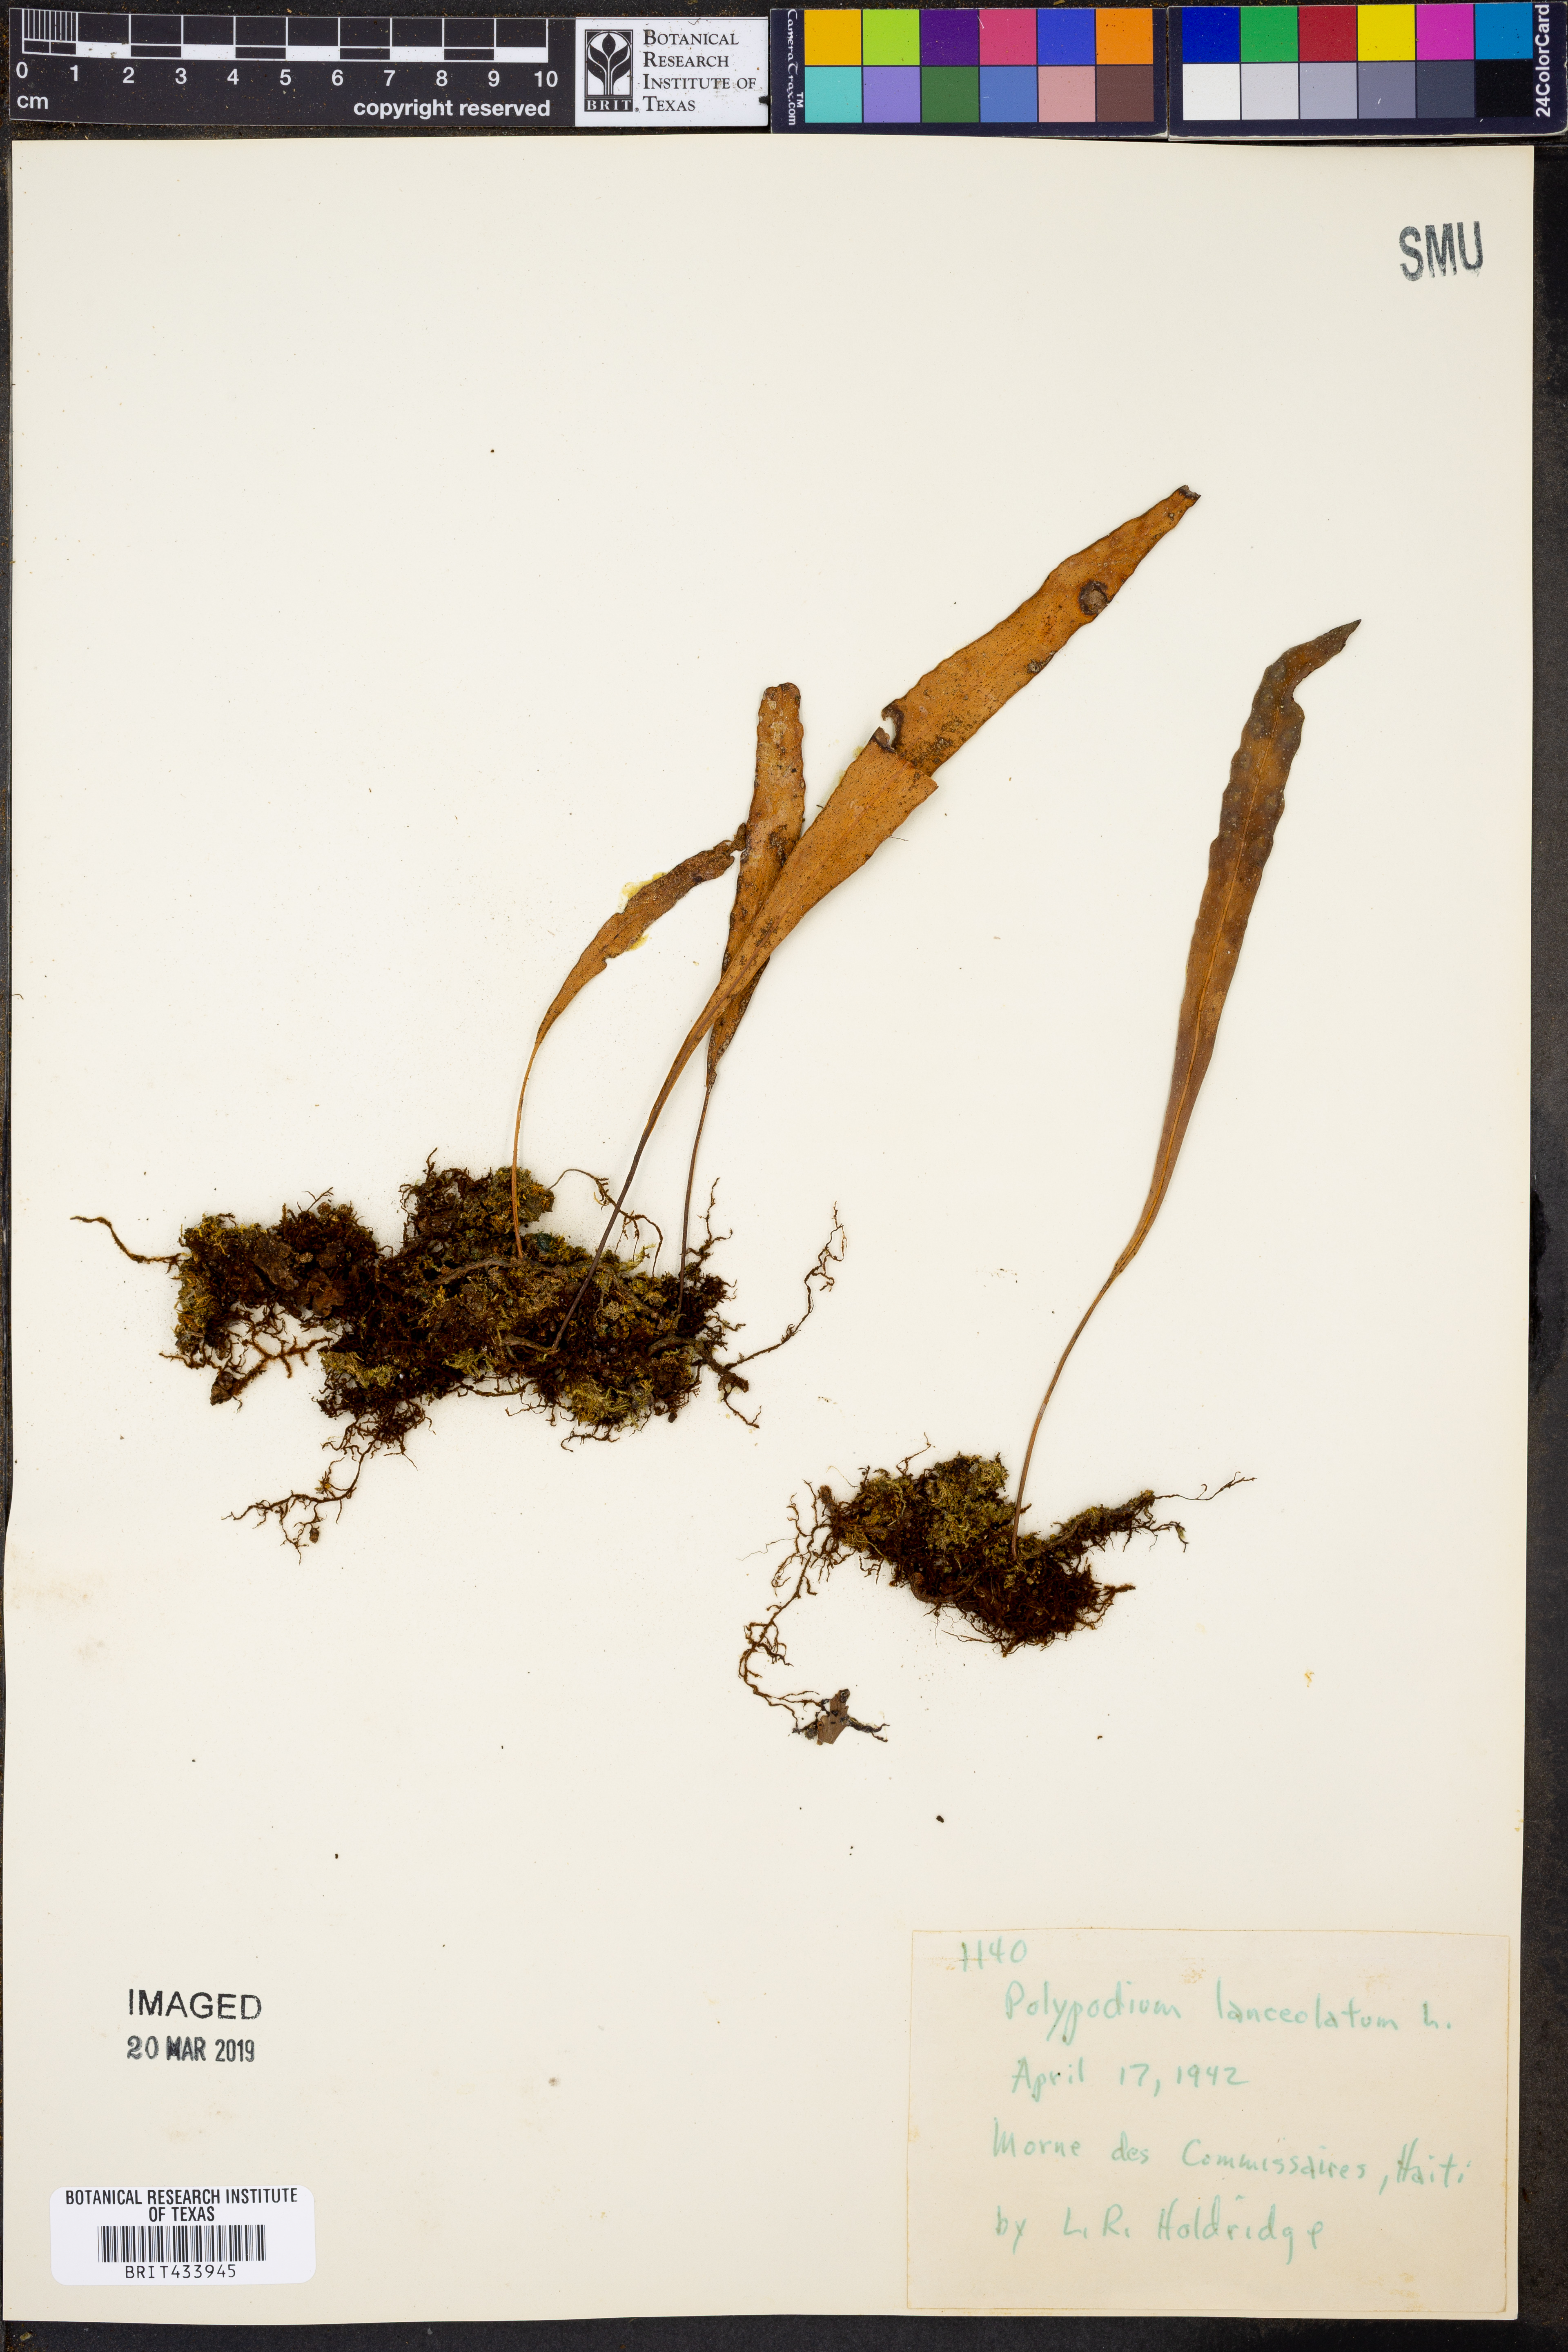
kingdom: Plantae
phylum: Tracheophyta
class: Polypodiopsida
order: Polypodiales
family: Polypodiaceae
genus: Pleopeltis
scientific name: Pleopeltis macrocarpa
